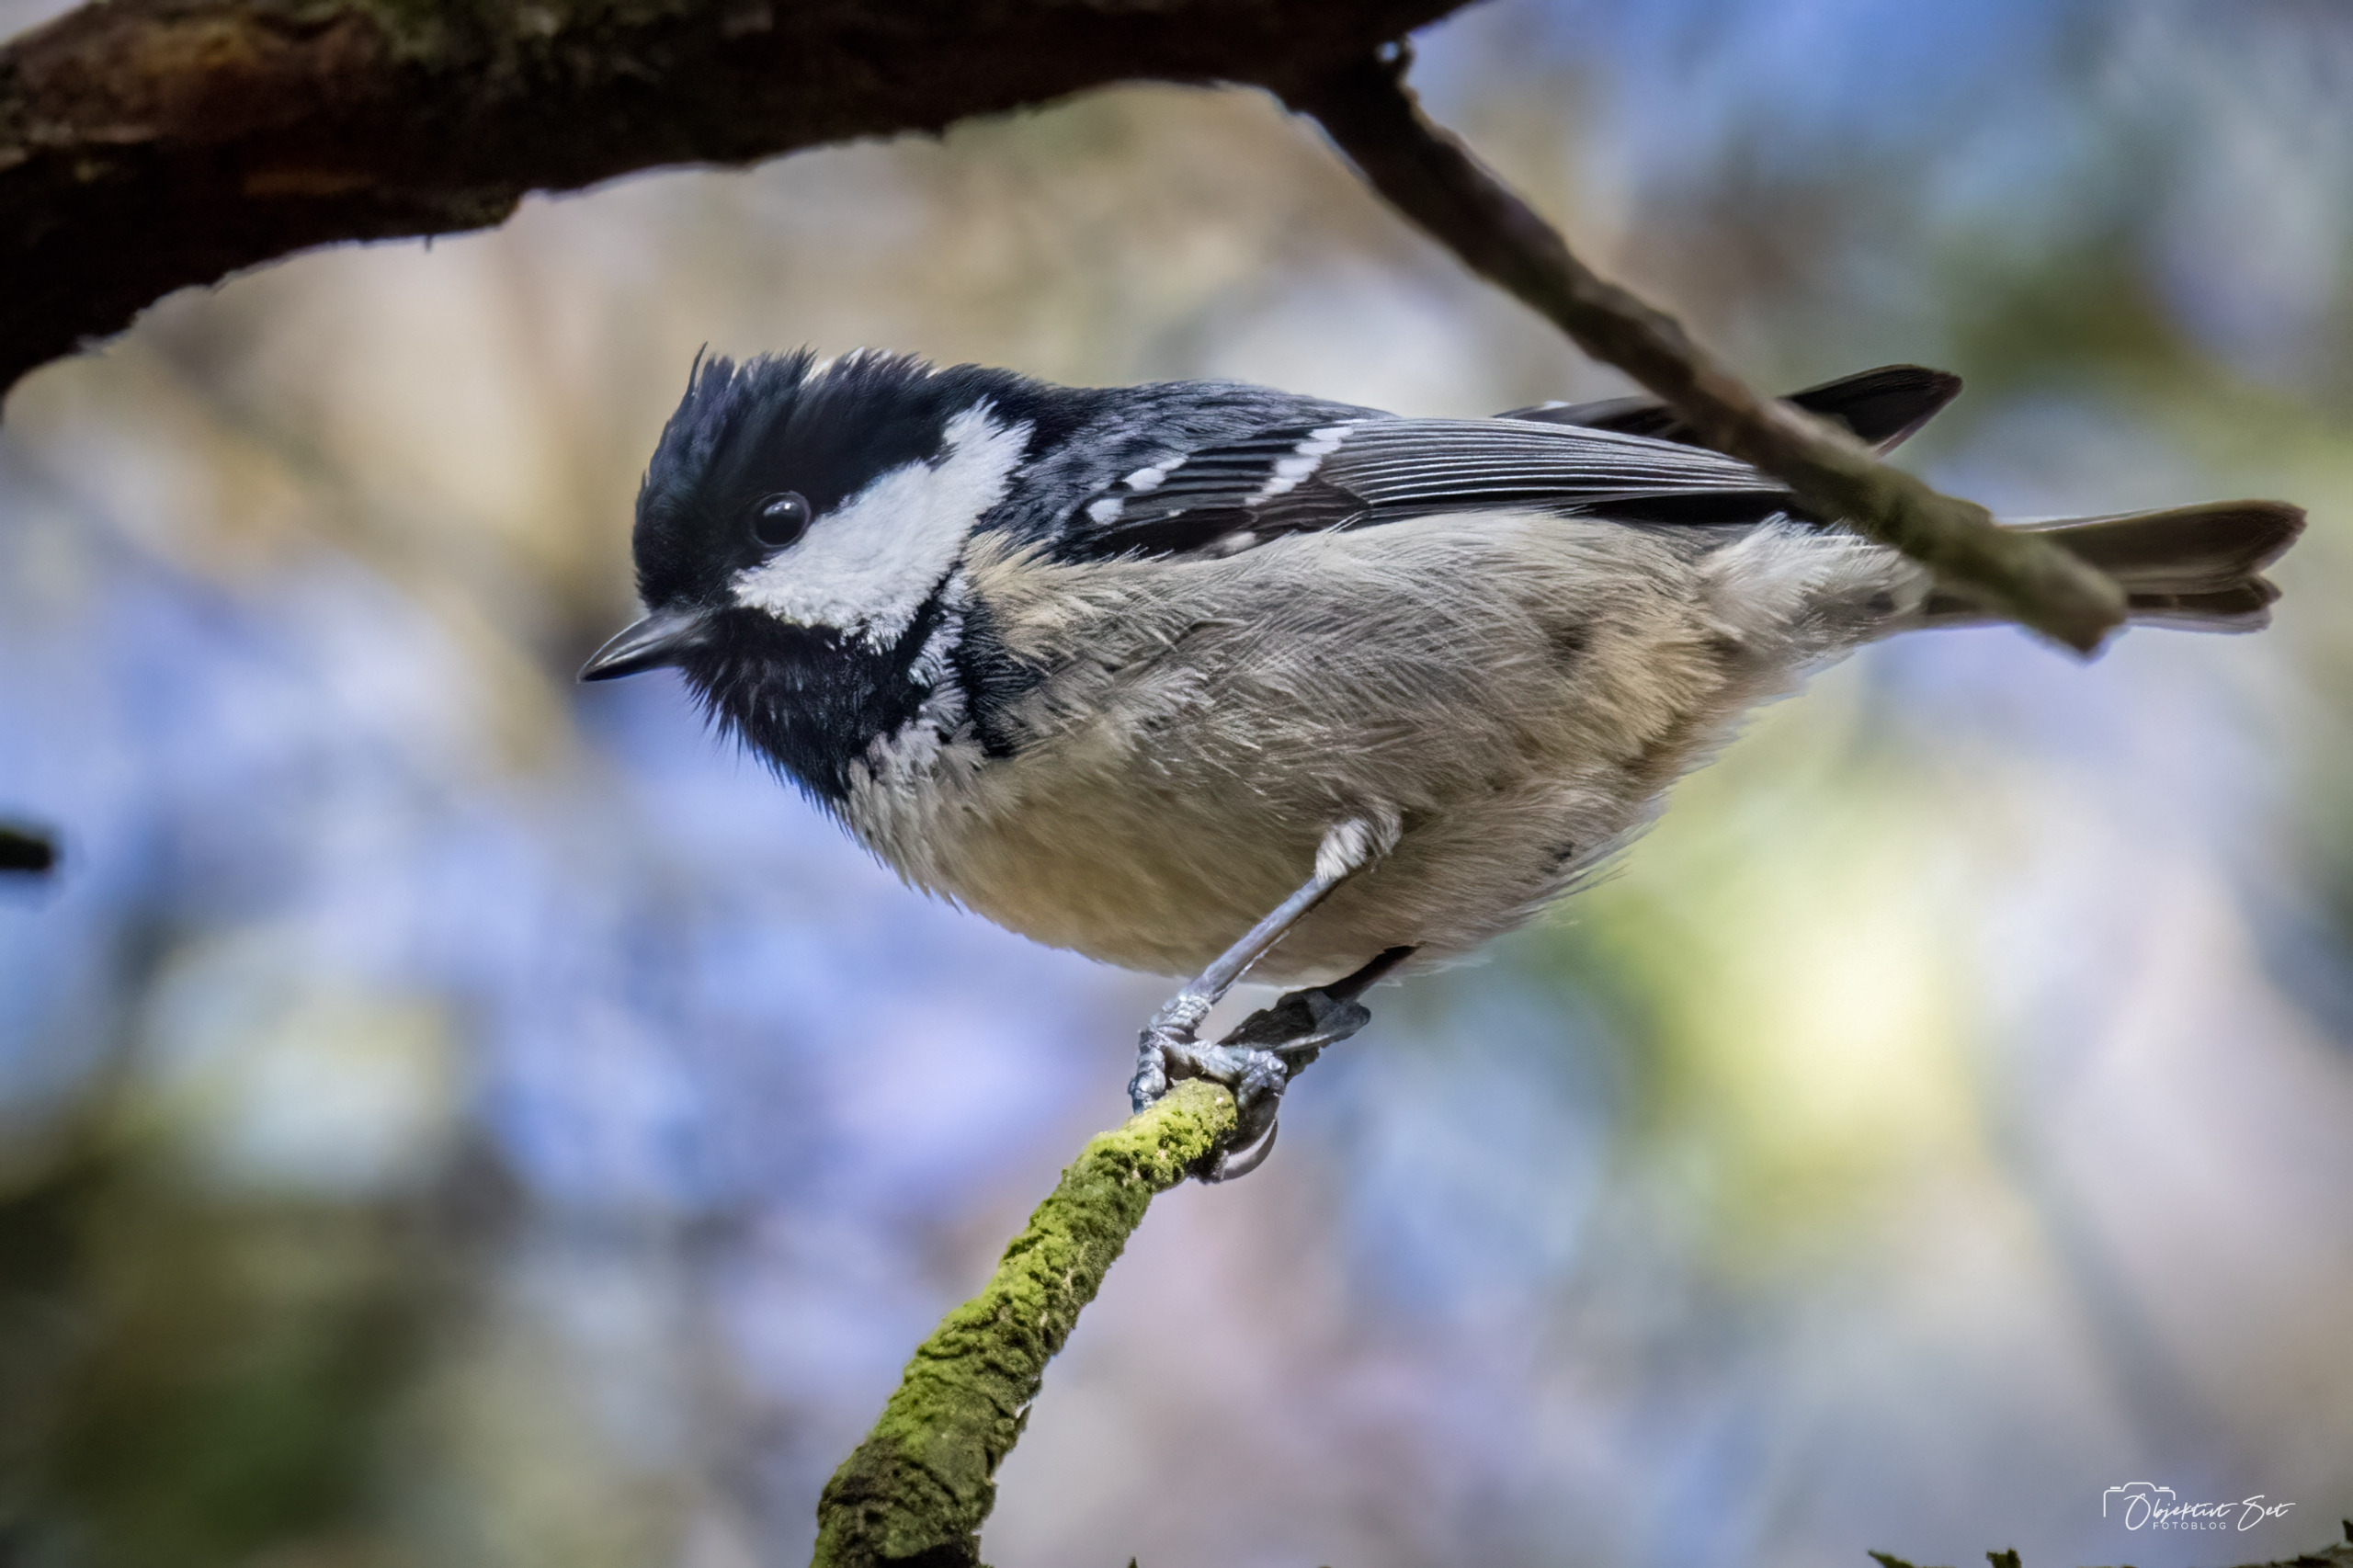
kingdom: Animalia
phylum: Chordata
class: Aves
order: Passeriformes
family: Paridae
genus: Periparus
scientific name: Periparus ater
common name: Sortmejse
